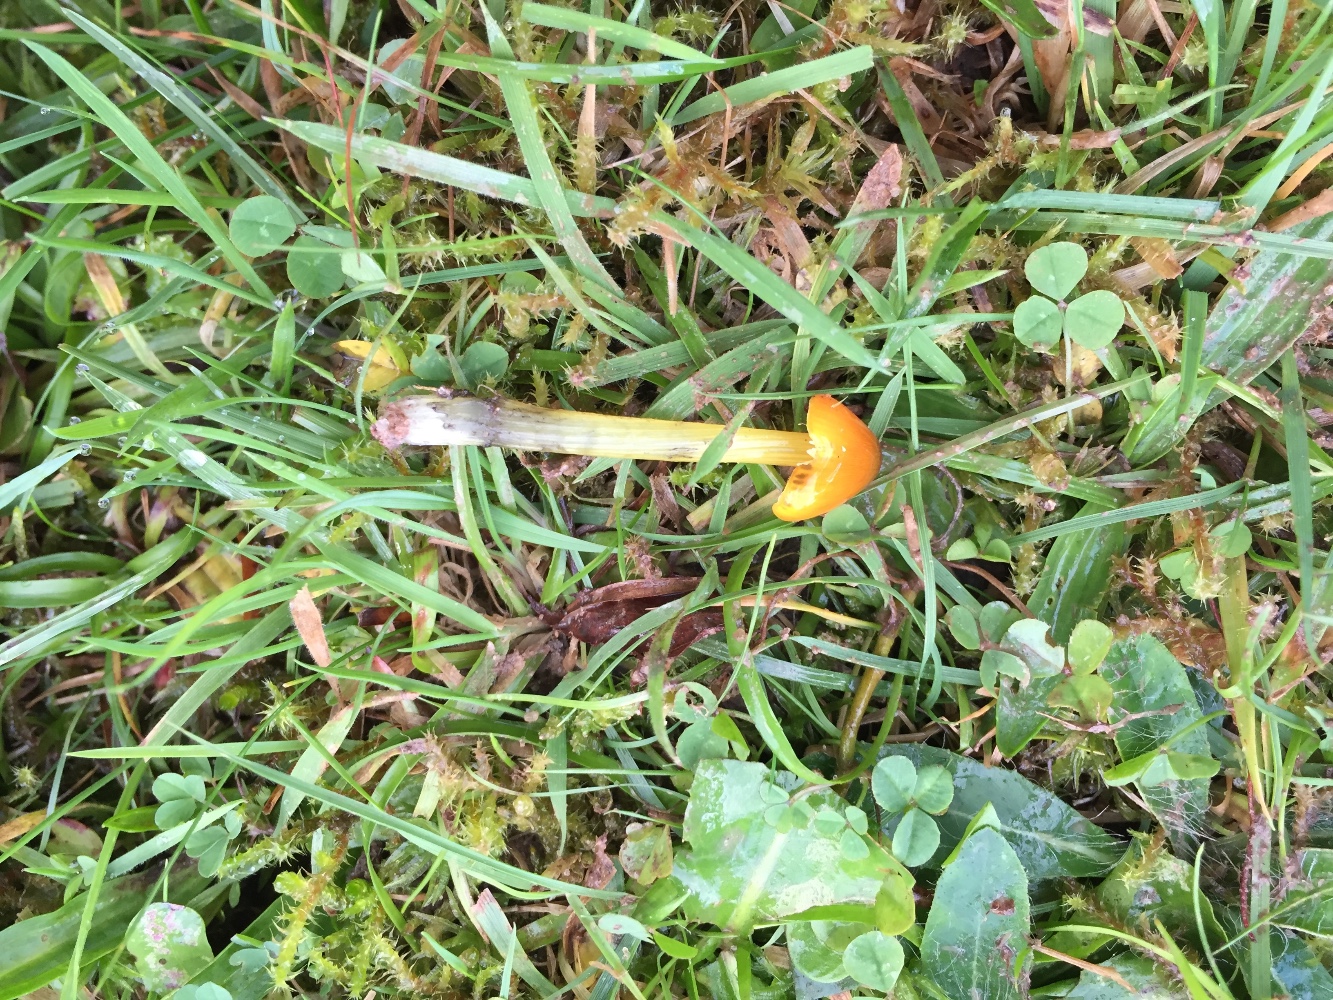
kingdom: Fungi
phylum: Basidiomycota
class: Agaricomycetes
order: Agaricales
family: Hygrophoraceae
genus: Hygrocybe
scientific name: Hygrocybe conica
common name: kegle-vokshat
